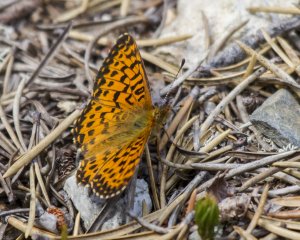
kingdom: Animalia
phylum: Arthropoda
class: Insecta
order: Lepidoptera
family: Nymphalidae
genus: Boloria
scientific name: Boloria chariclea
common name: Arctic Fritillary
